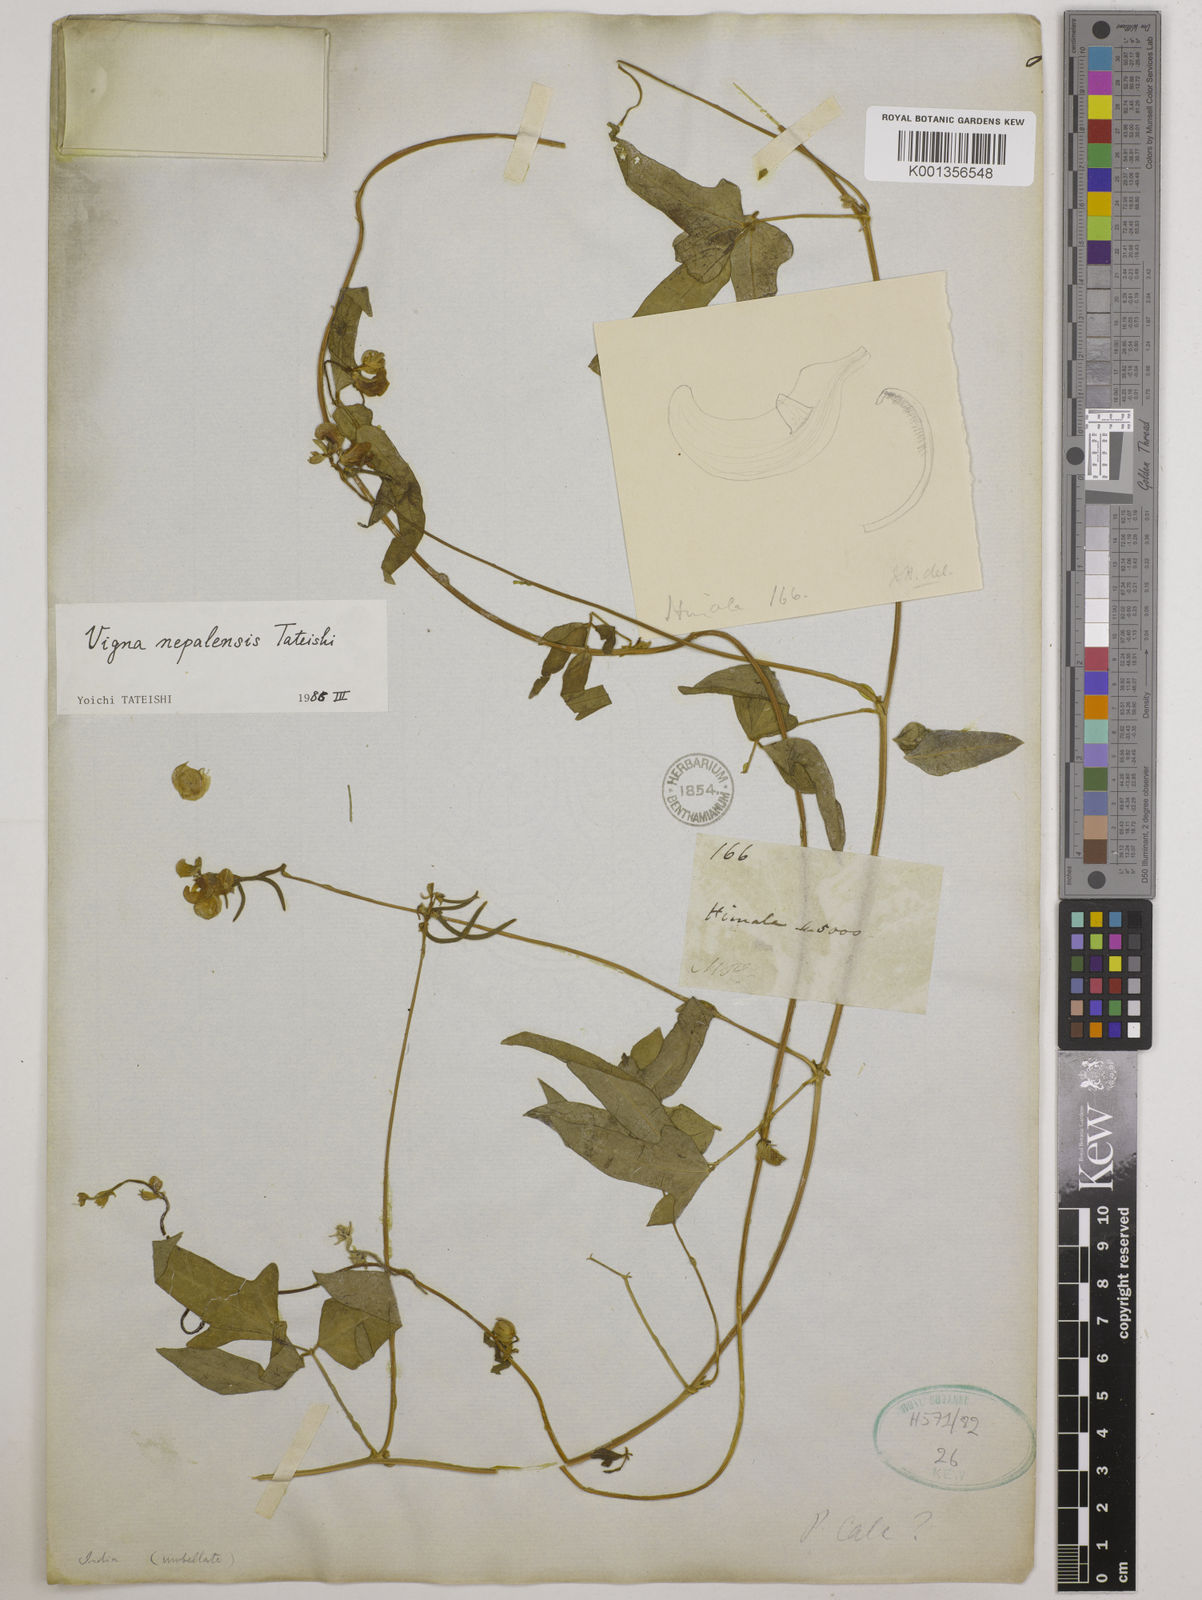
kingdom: Plantae
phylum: Tracheophyta
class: Magnoliopsida
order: Fabales
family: Fabaceae
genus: Vigna
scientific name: Vigna
